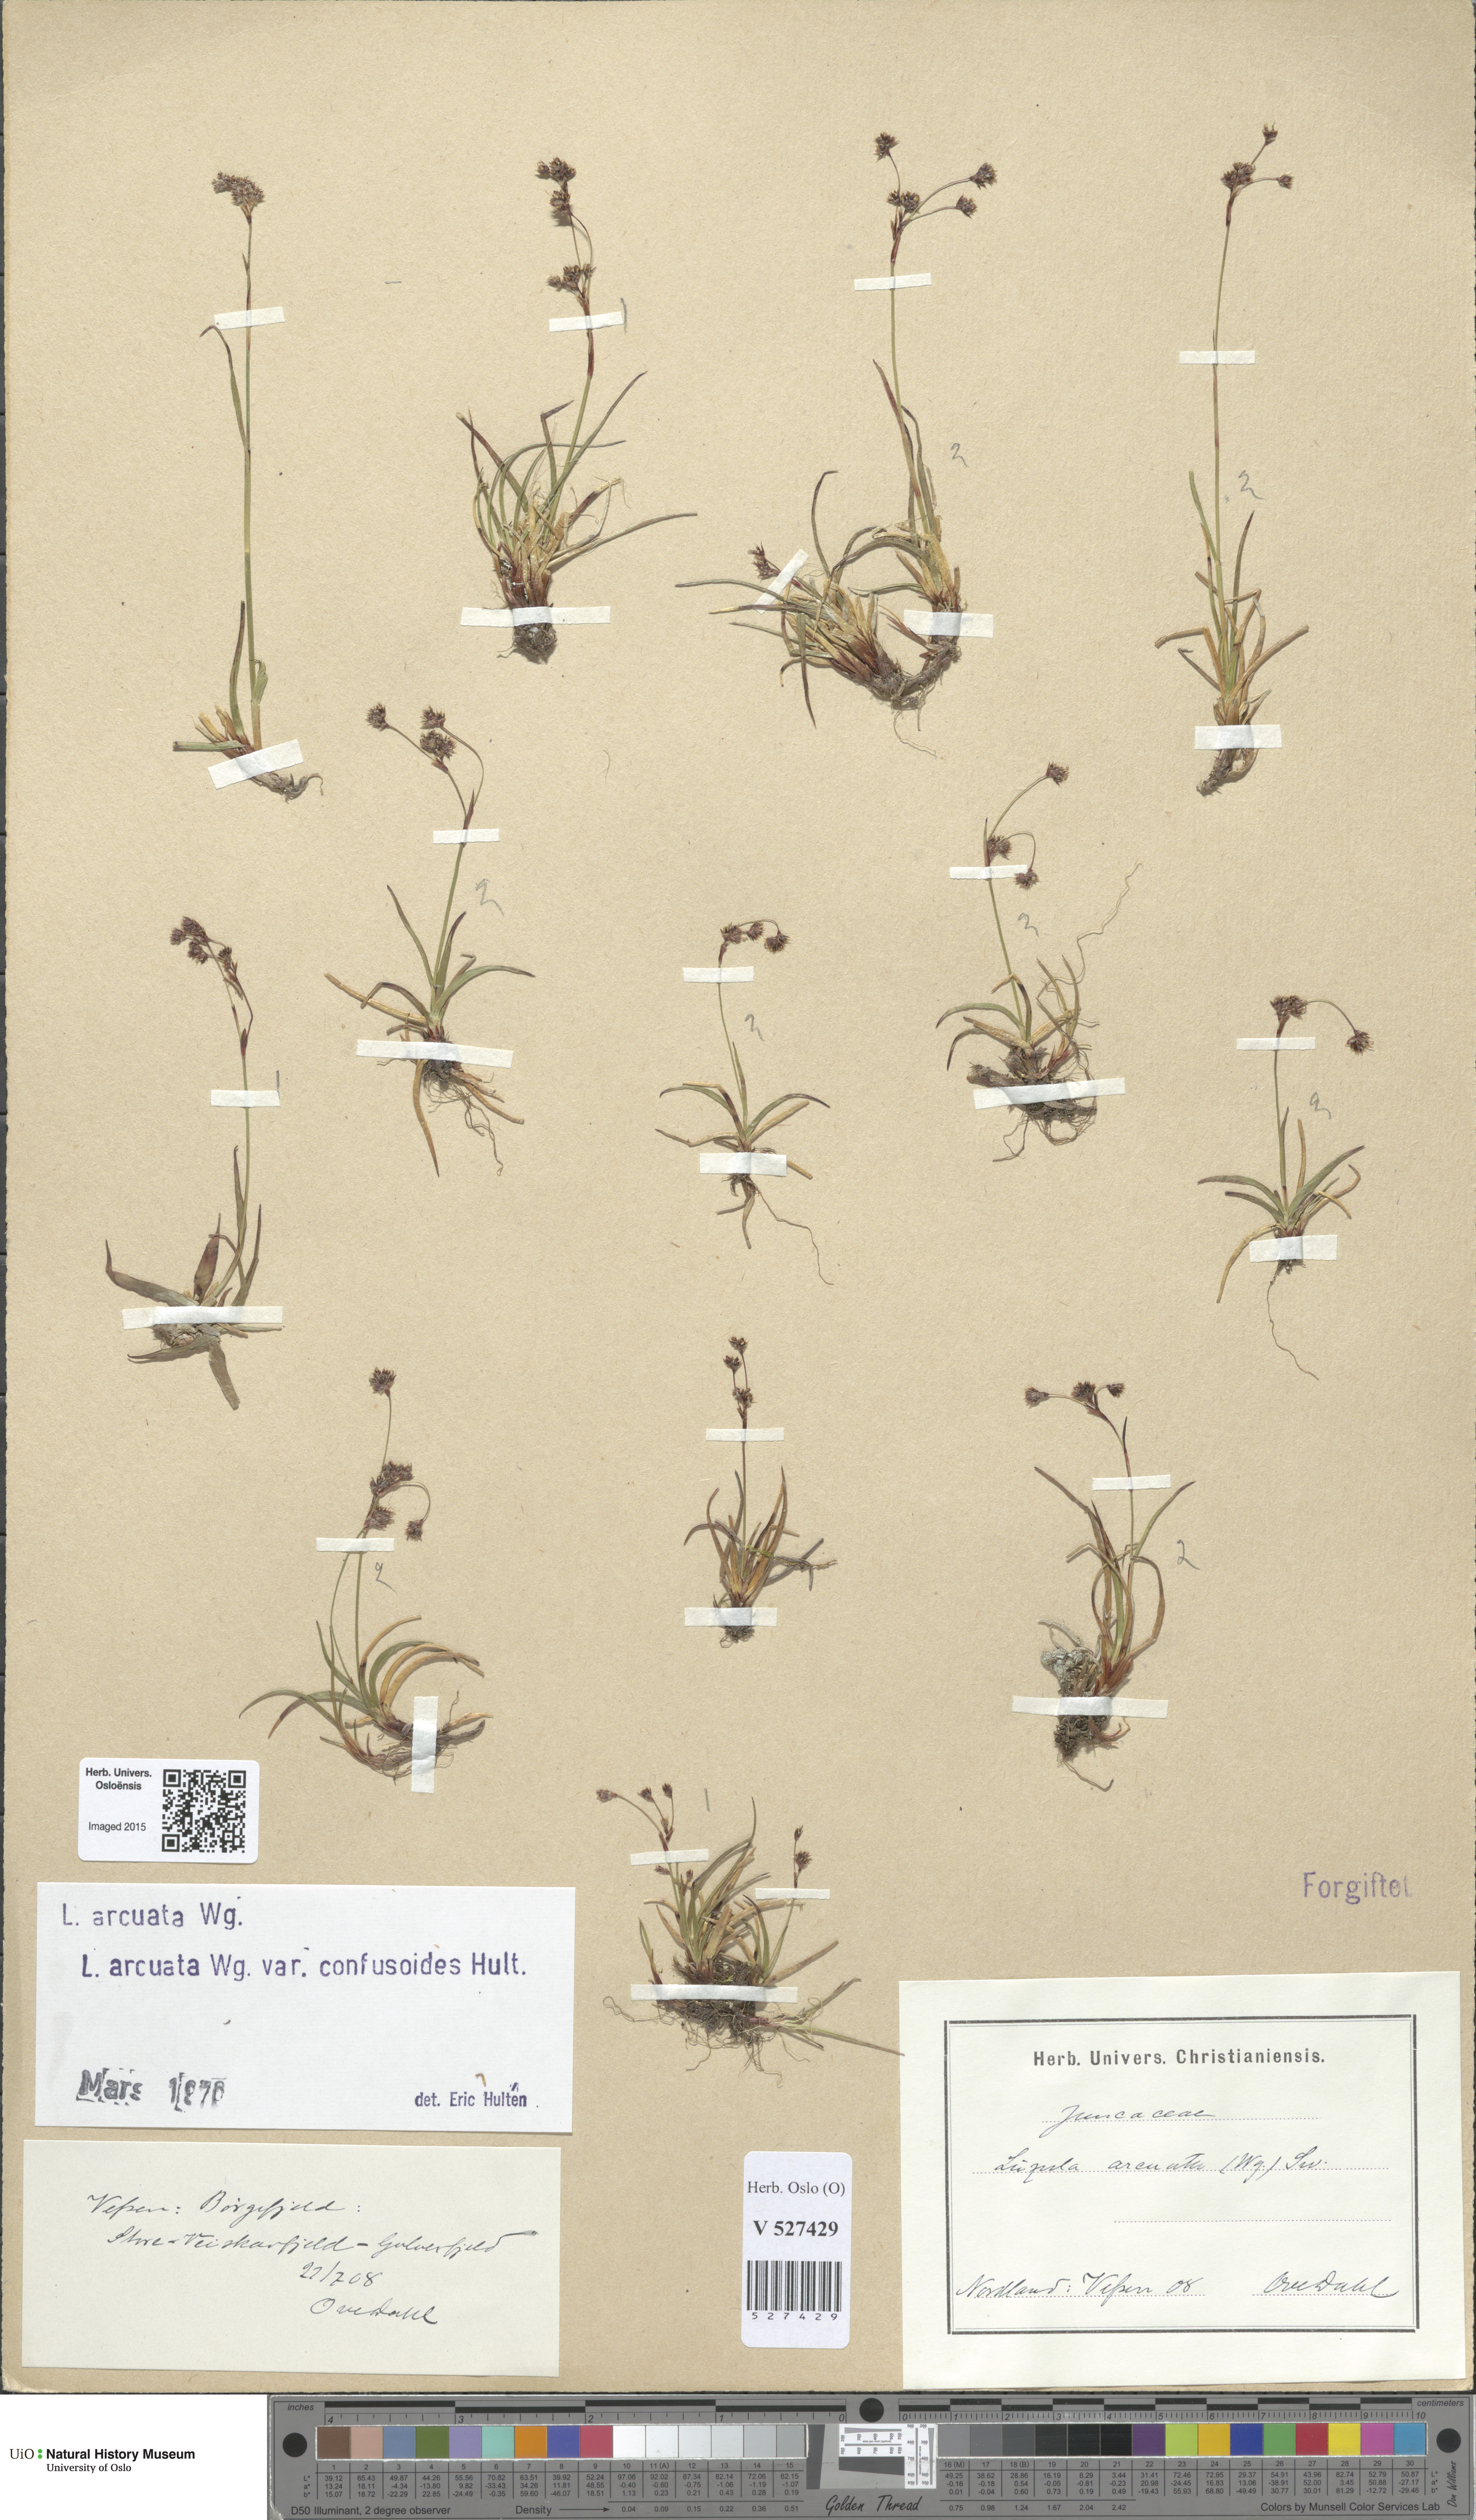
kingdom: Plantae
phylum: Tracheophyta
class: Liliopsida
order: Poales
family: Juncaceae
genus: Luzula
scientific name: Luzula arcuata
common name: Curved wood-rush
